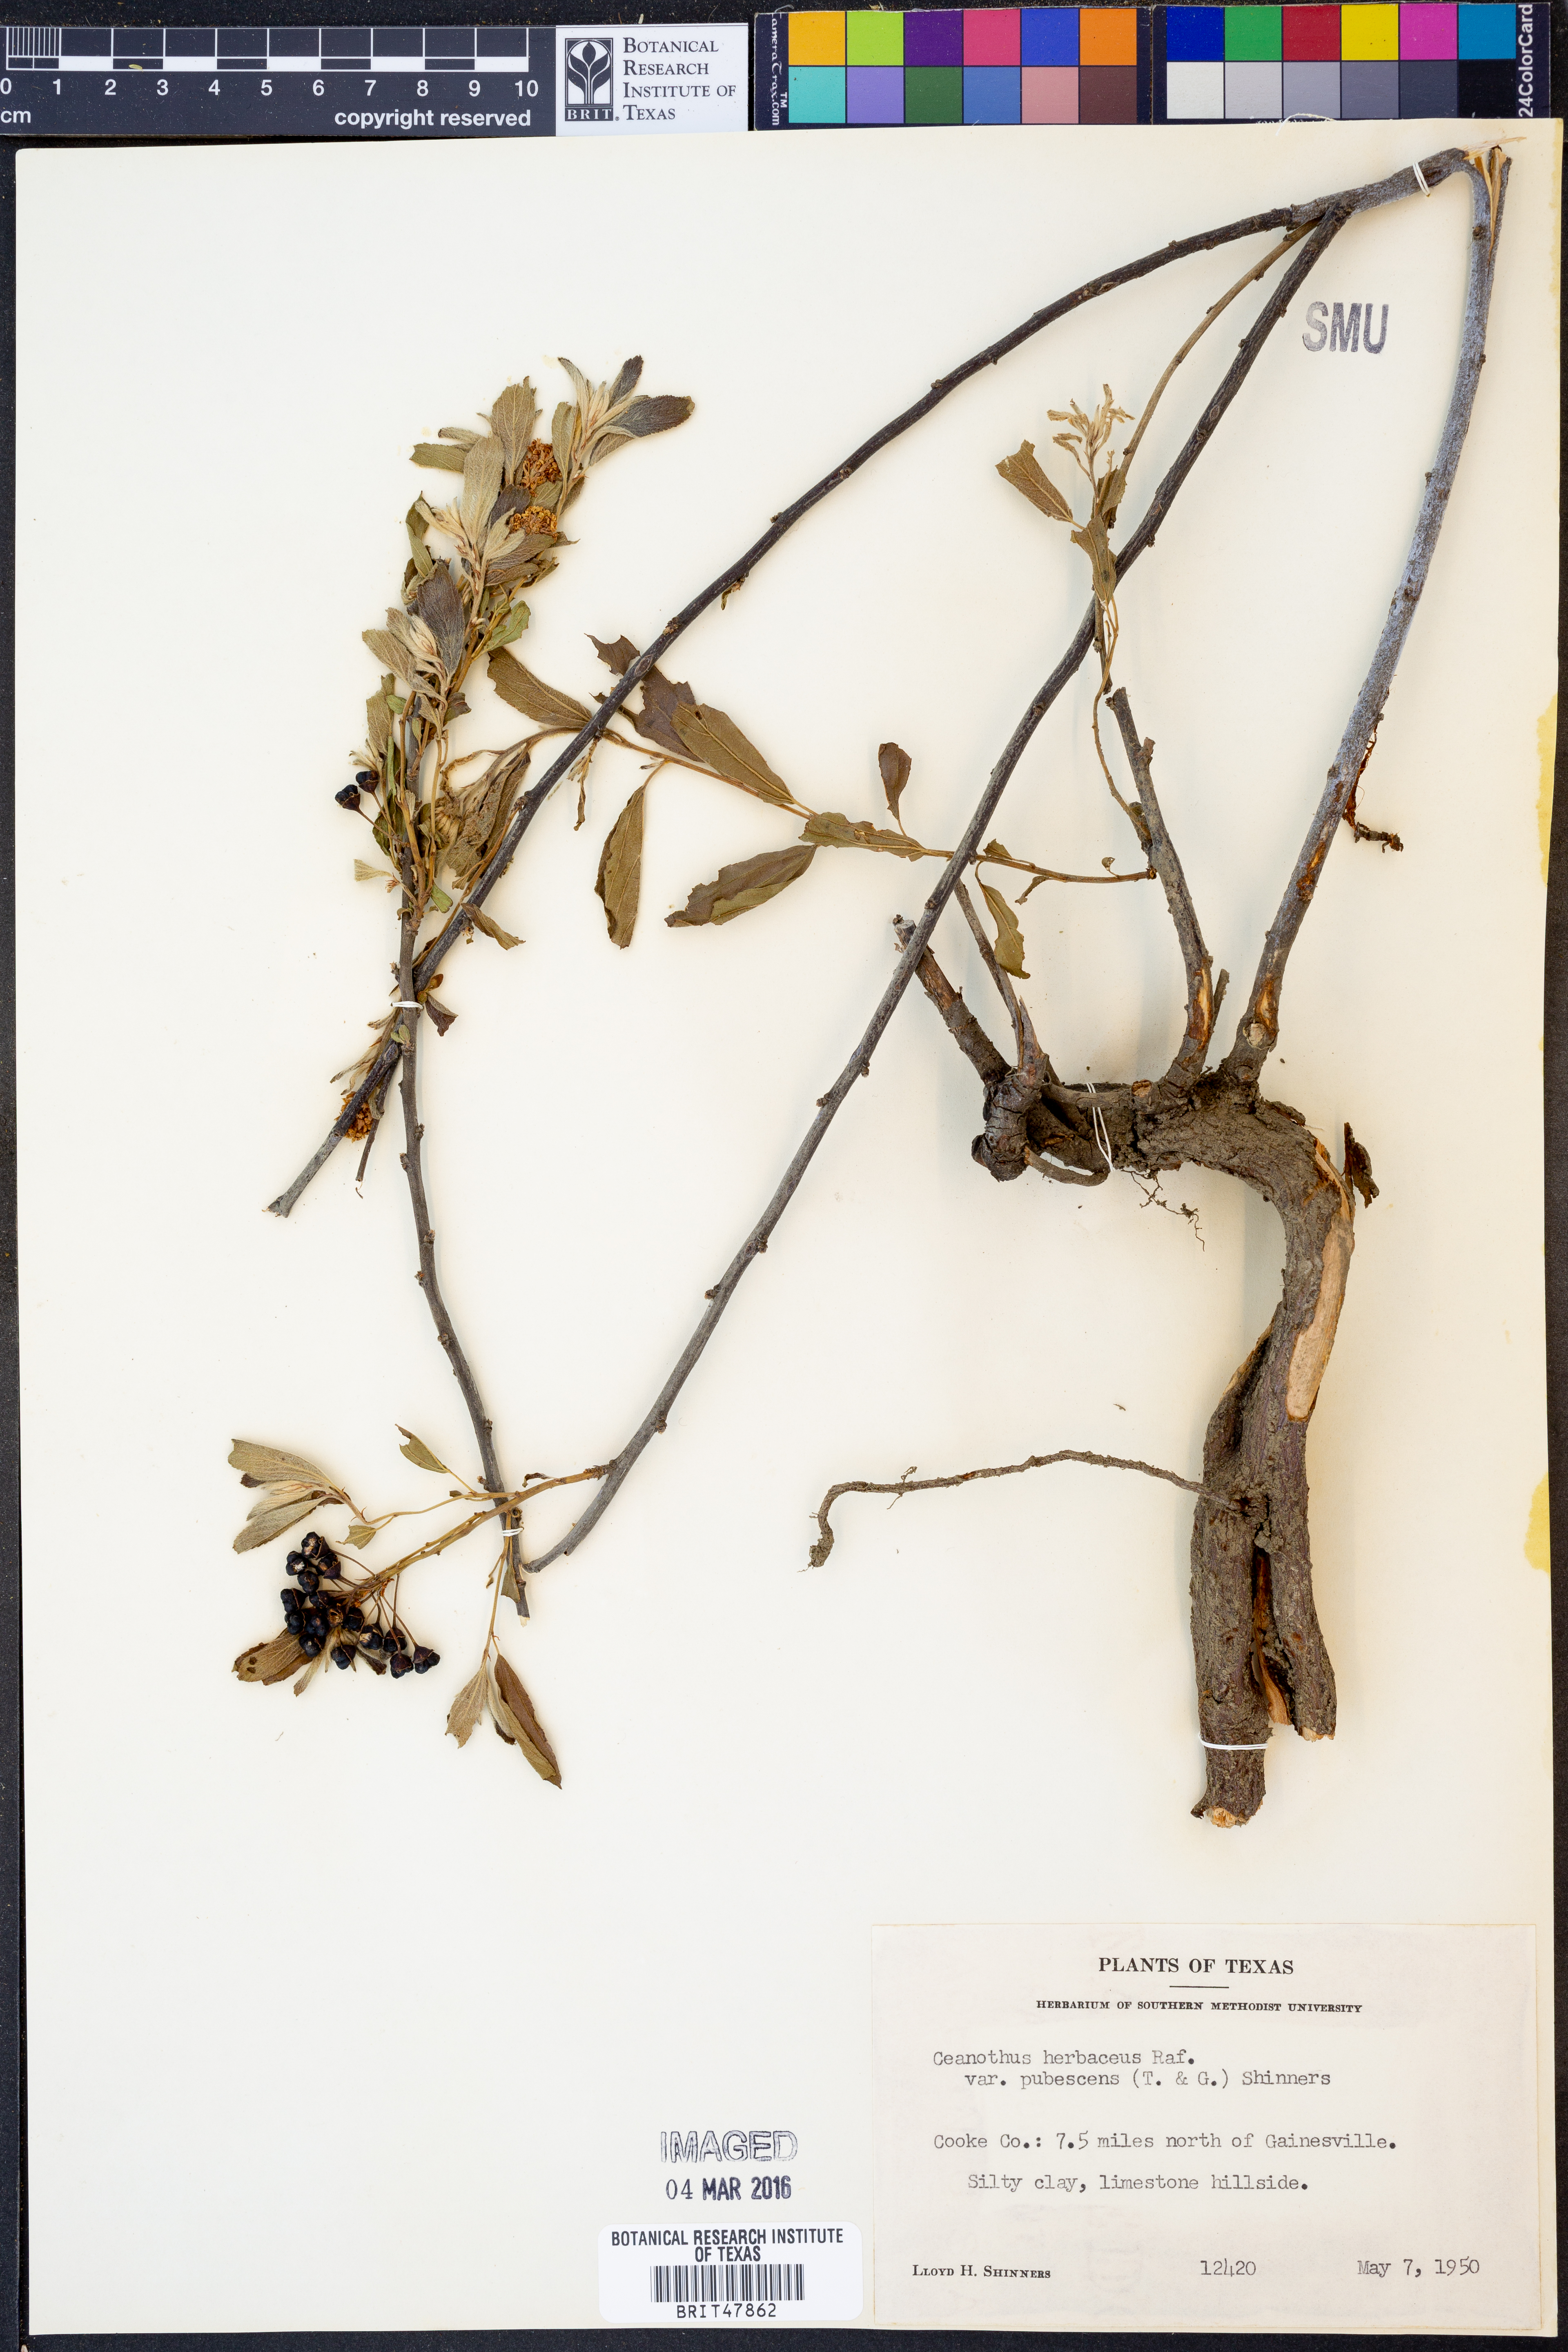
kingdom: Plantae
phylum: Tracheophyta
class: Magnoliopsida
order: Rosales
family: Rhamnaceae
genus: Ceanothus
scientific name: Ceanothus herbaceus
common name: Inland ceanothus
